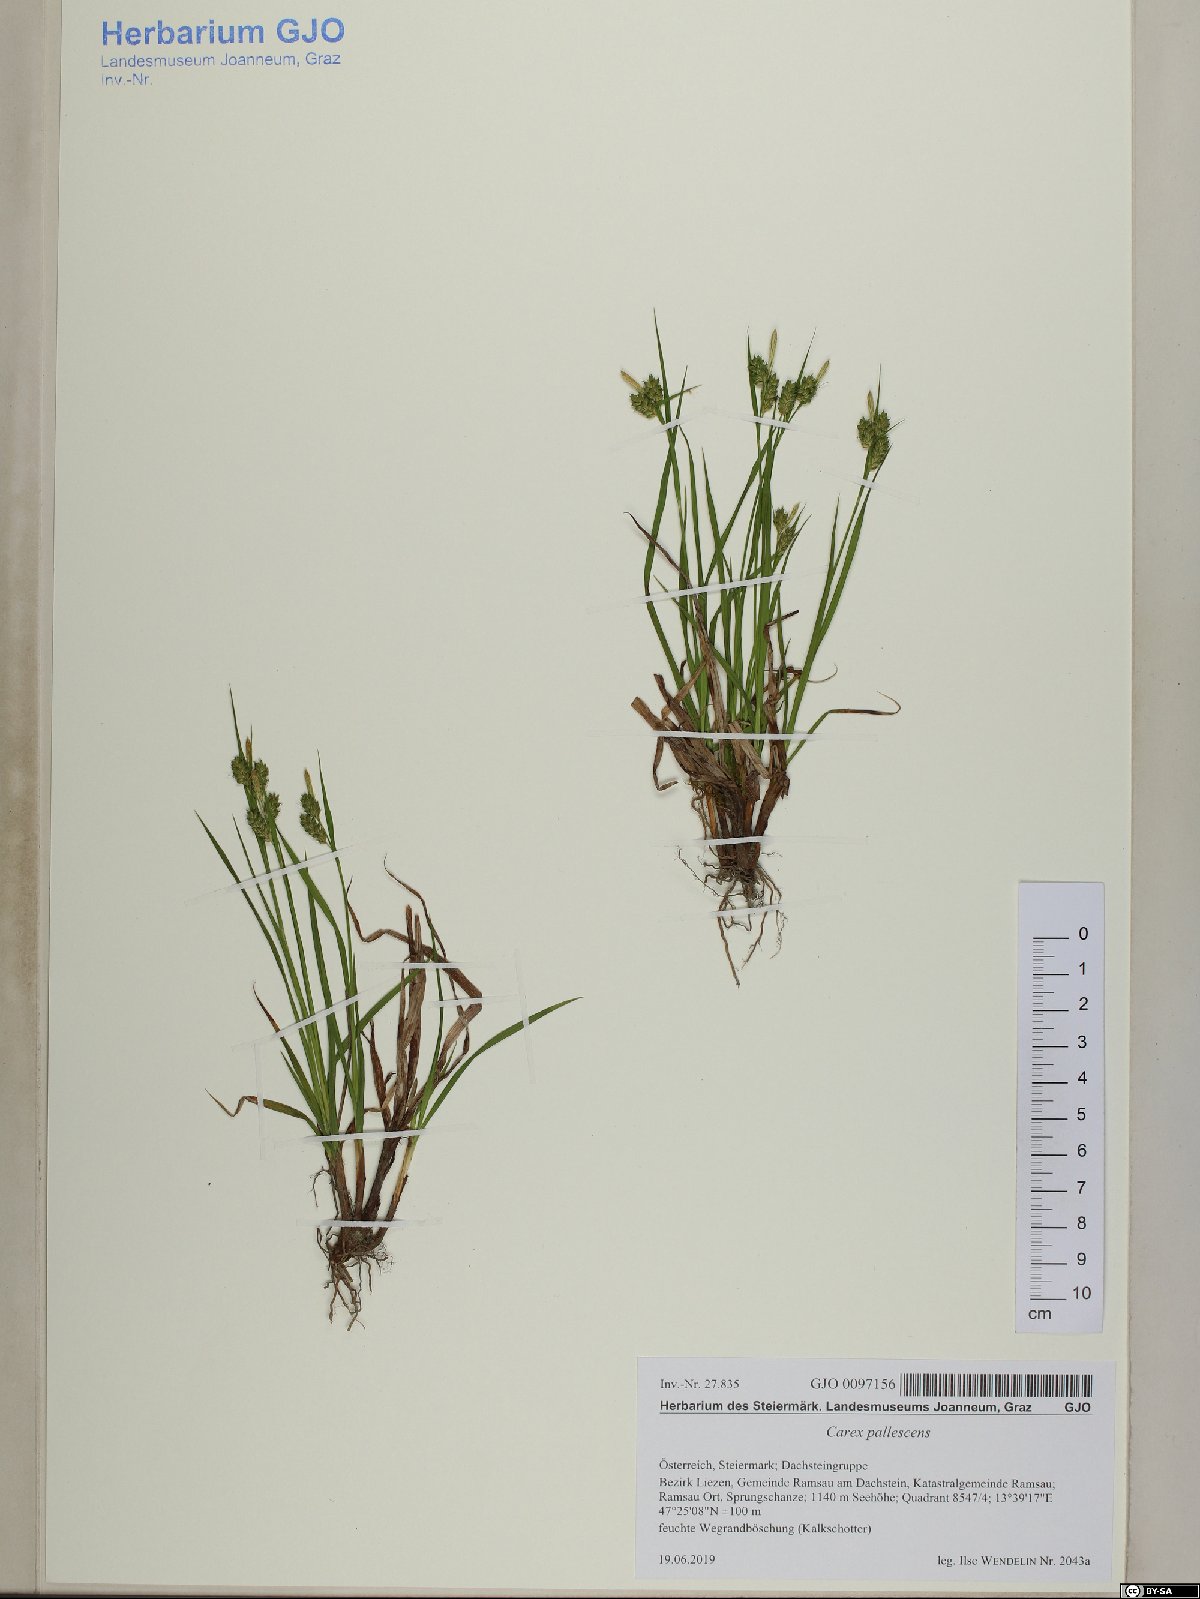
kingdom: Plantae
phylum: Tracheophyta
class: Liliopsida
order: Poales
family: Cyperaceae
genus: Carex
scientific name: Carex pallescens
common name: Pale sedge
